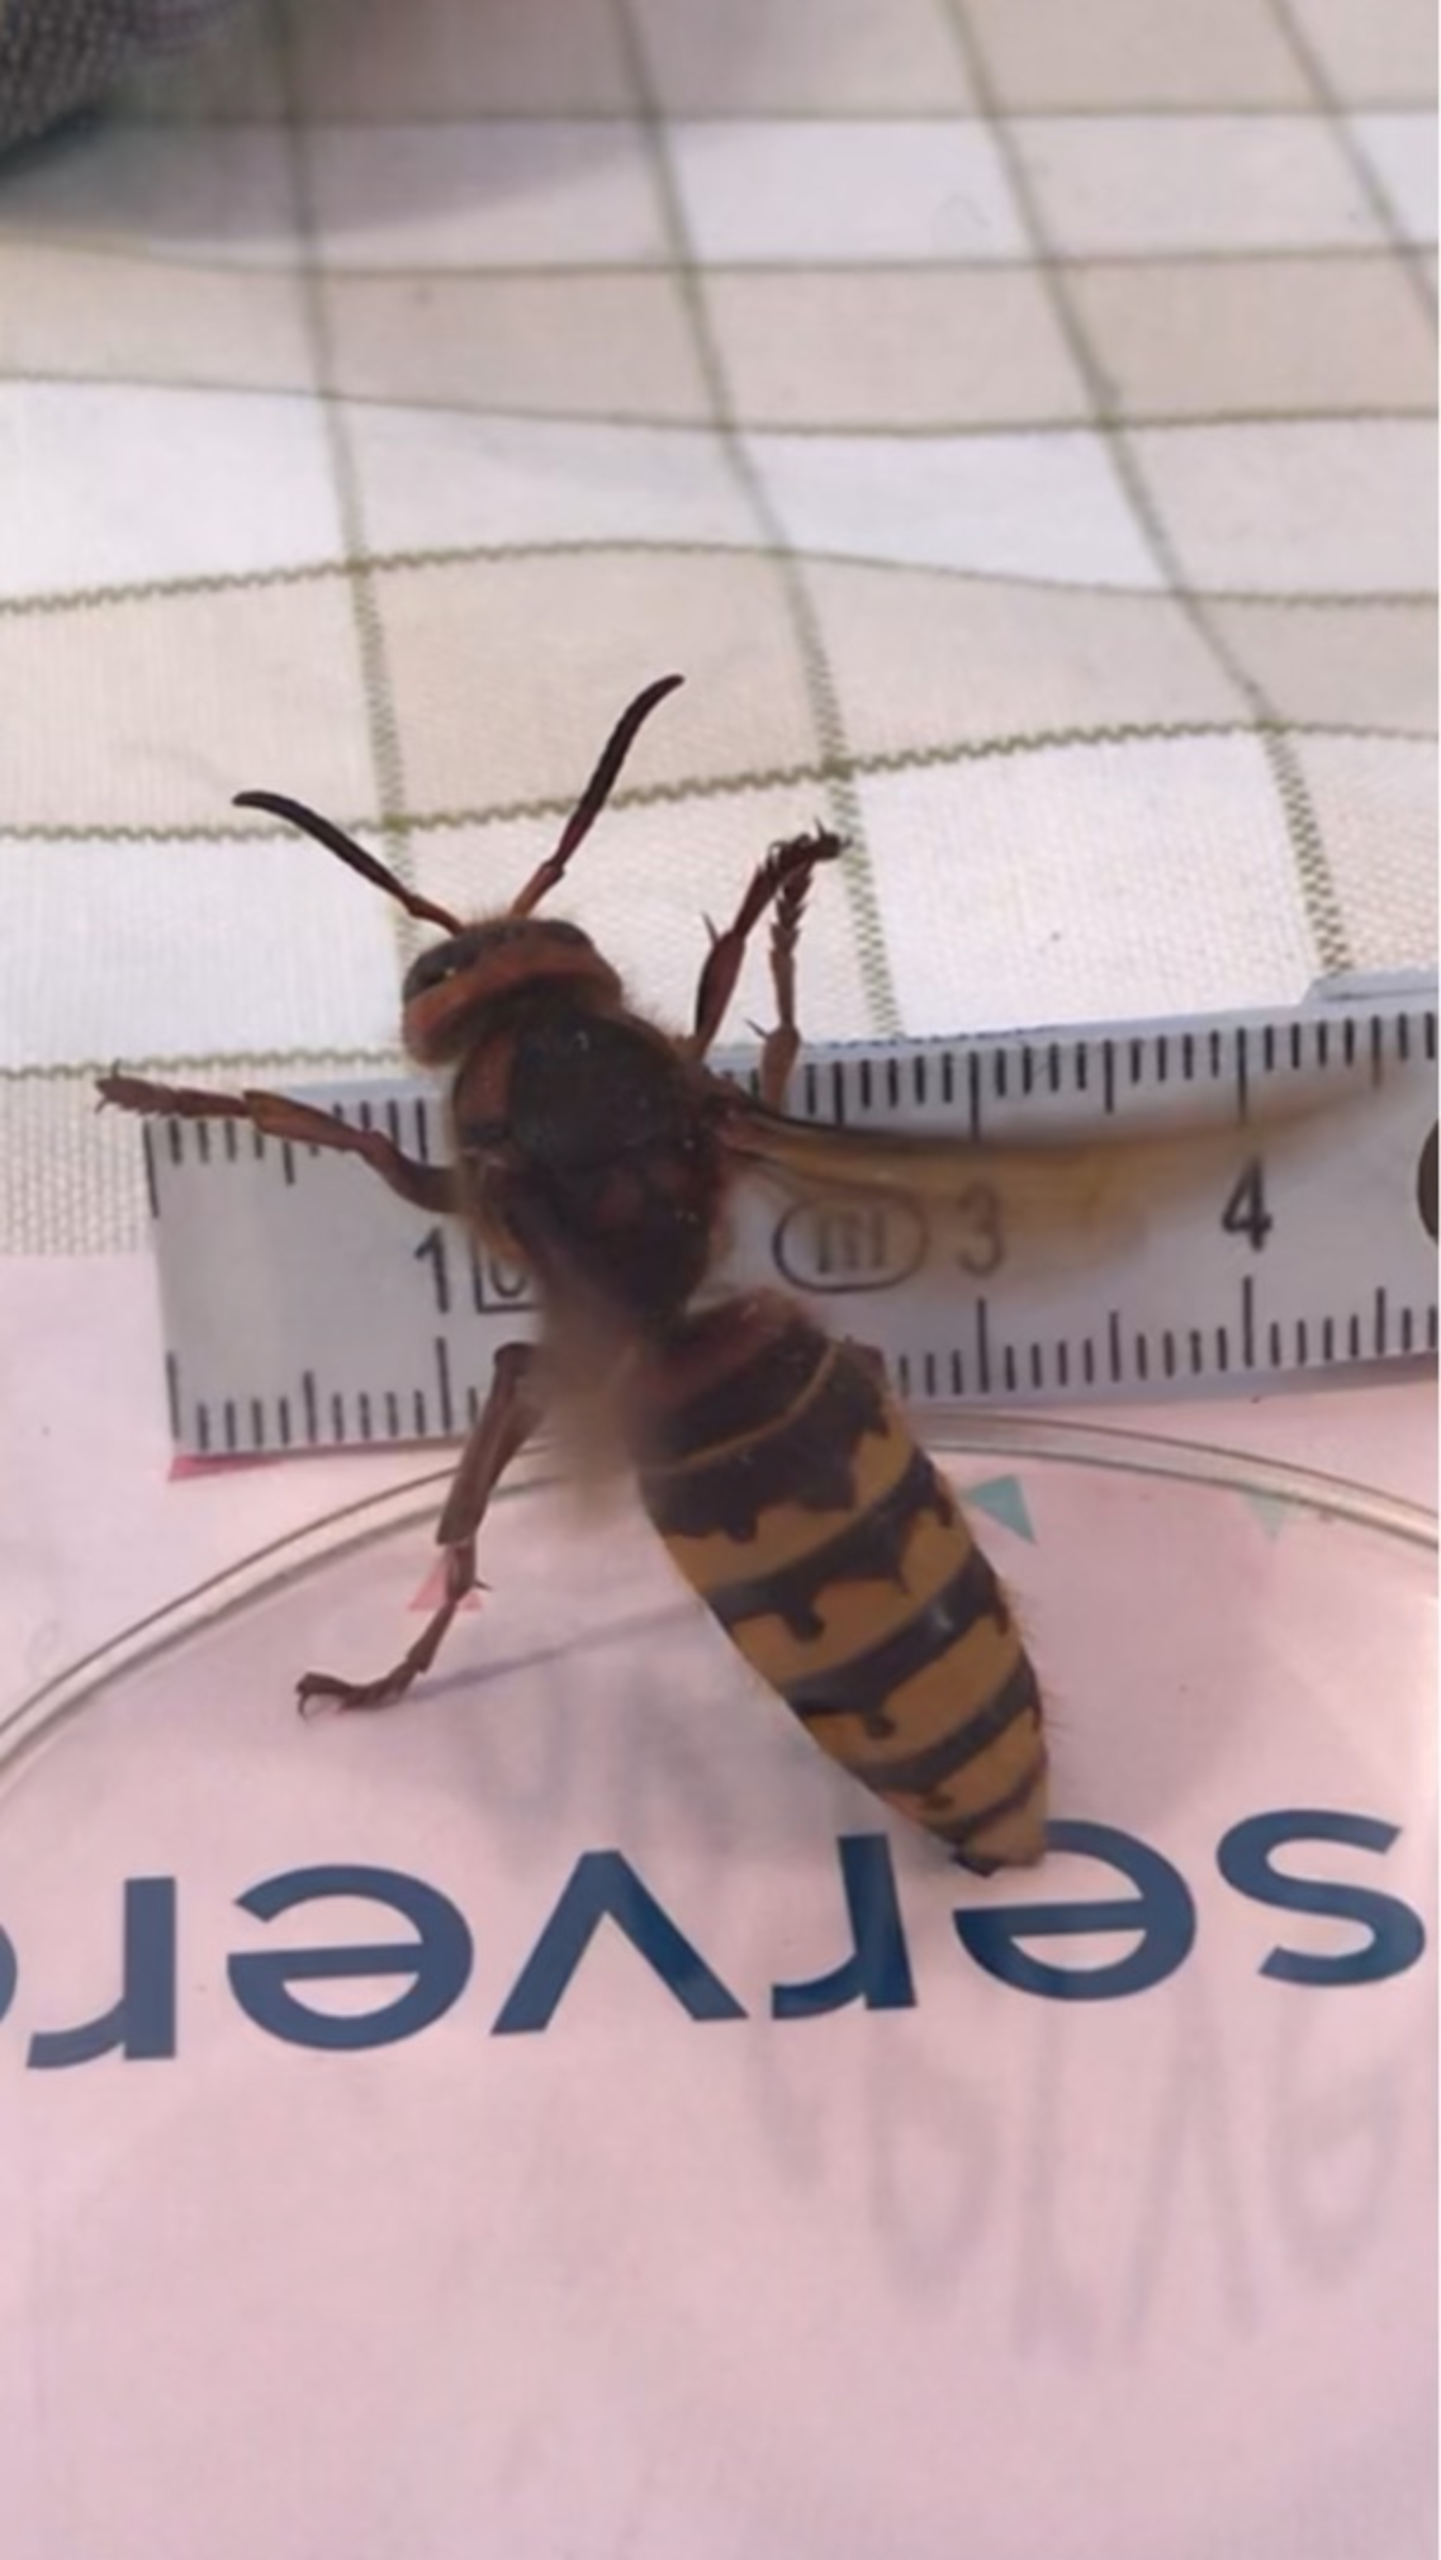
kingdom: Animalia
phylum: Arthropoda
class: Insecta
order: Hymenoptera
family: Vespidae
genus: Vespa
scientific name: Vespa crabro
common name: Stor gedehams
